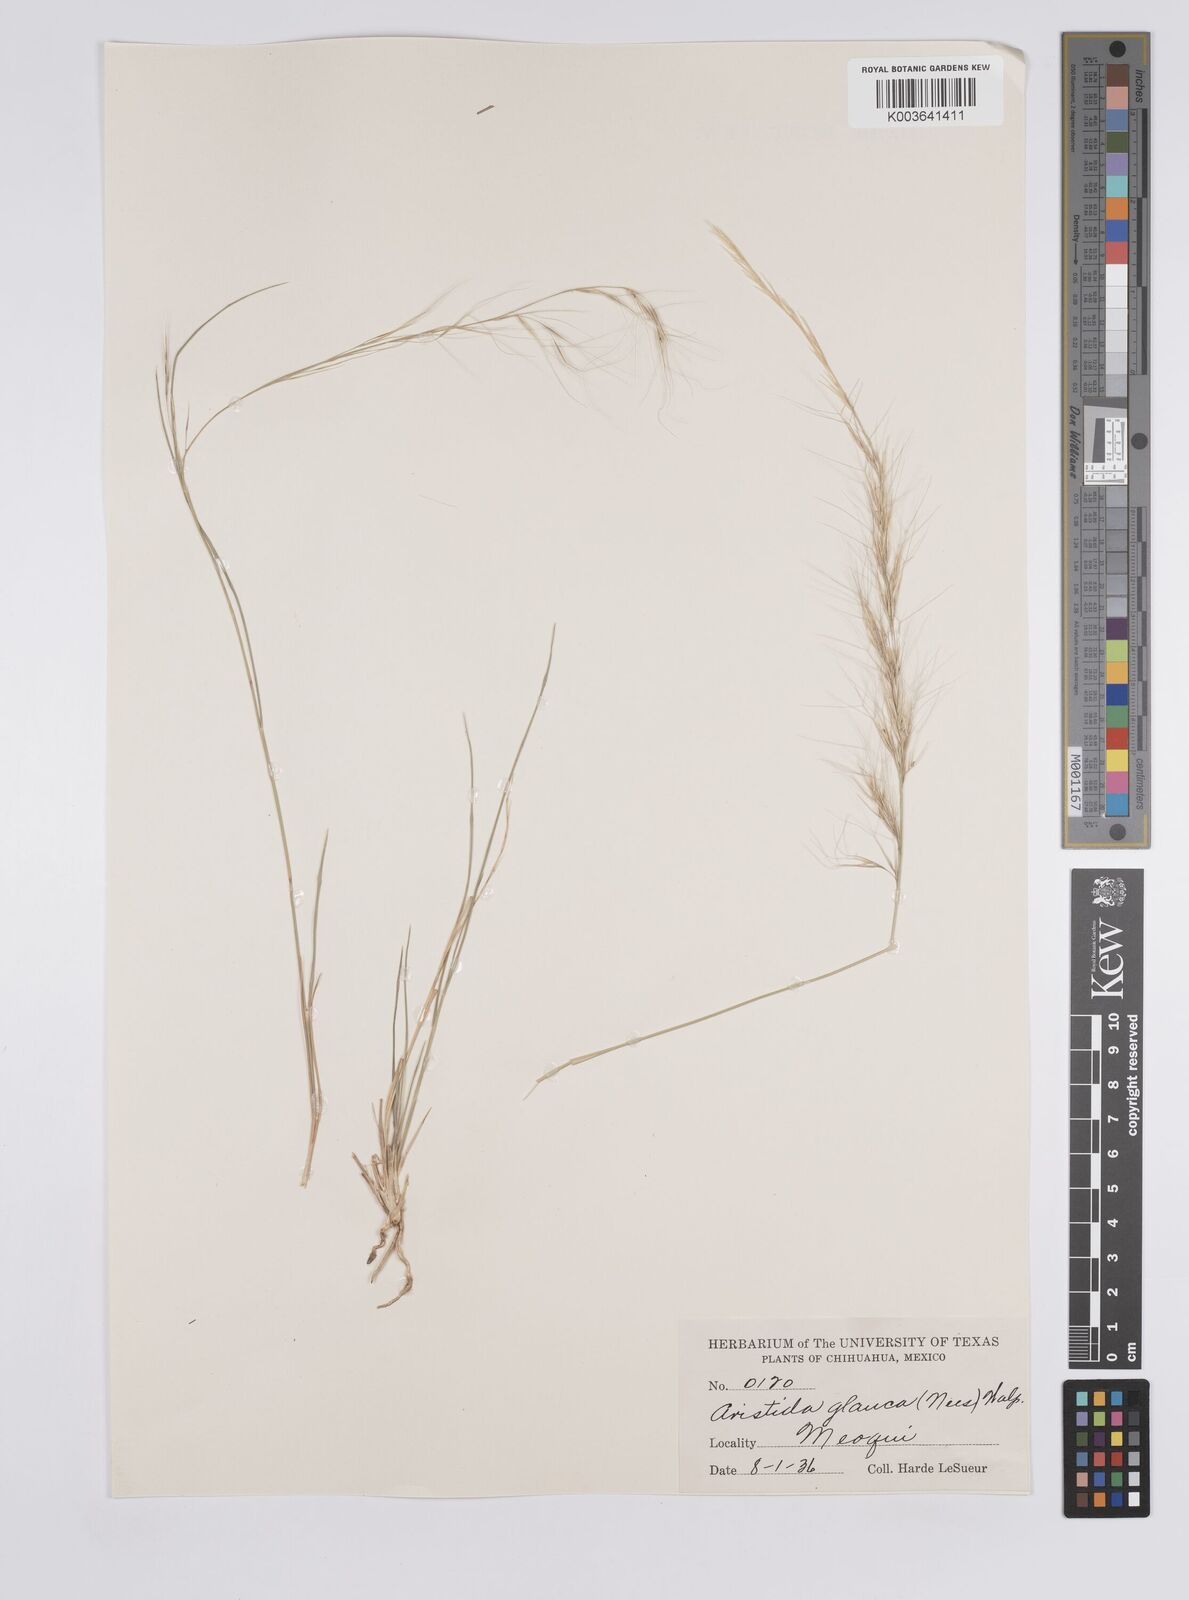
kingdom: Plantae
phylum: Tracheophyta
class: Liliopsida
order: Poales
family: Poaceae
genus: Aristida
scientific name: Aristida purpurea
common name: Purple threeawn
